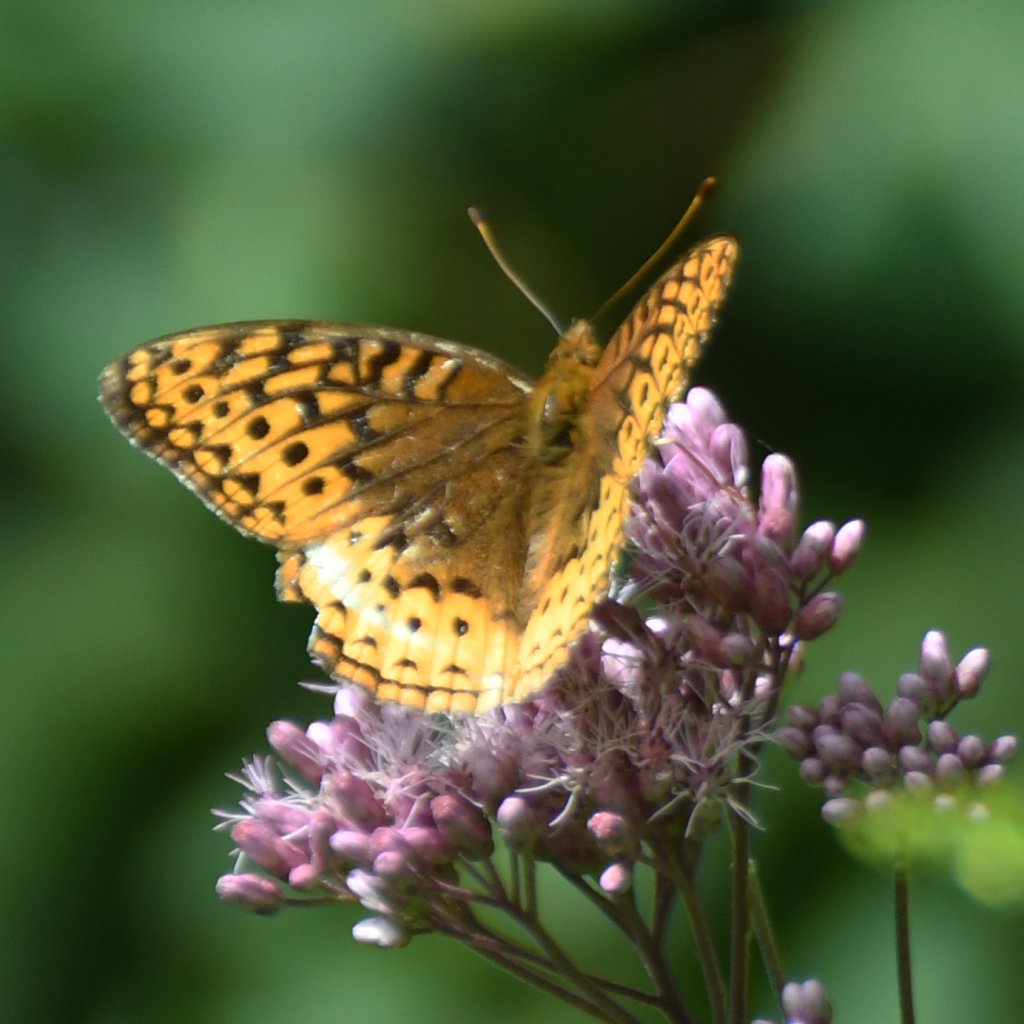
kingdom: Animalia
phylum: Arthropoda
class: Insecta
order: Lepidoptera
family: Nymphalidae
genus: Speyeria
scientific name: Speyeria cybele
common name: Great Spangled Fritillary
